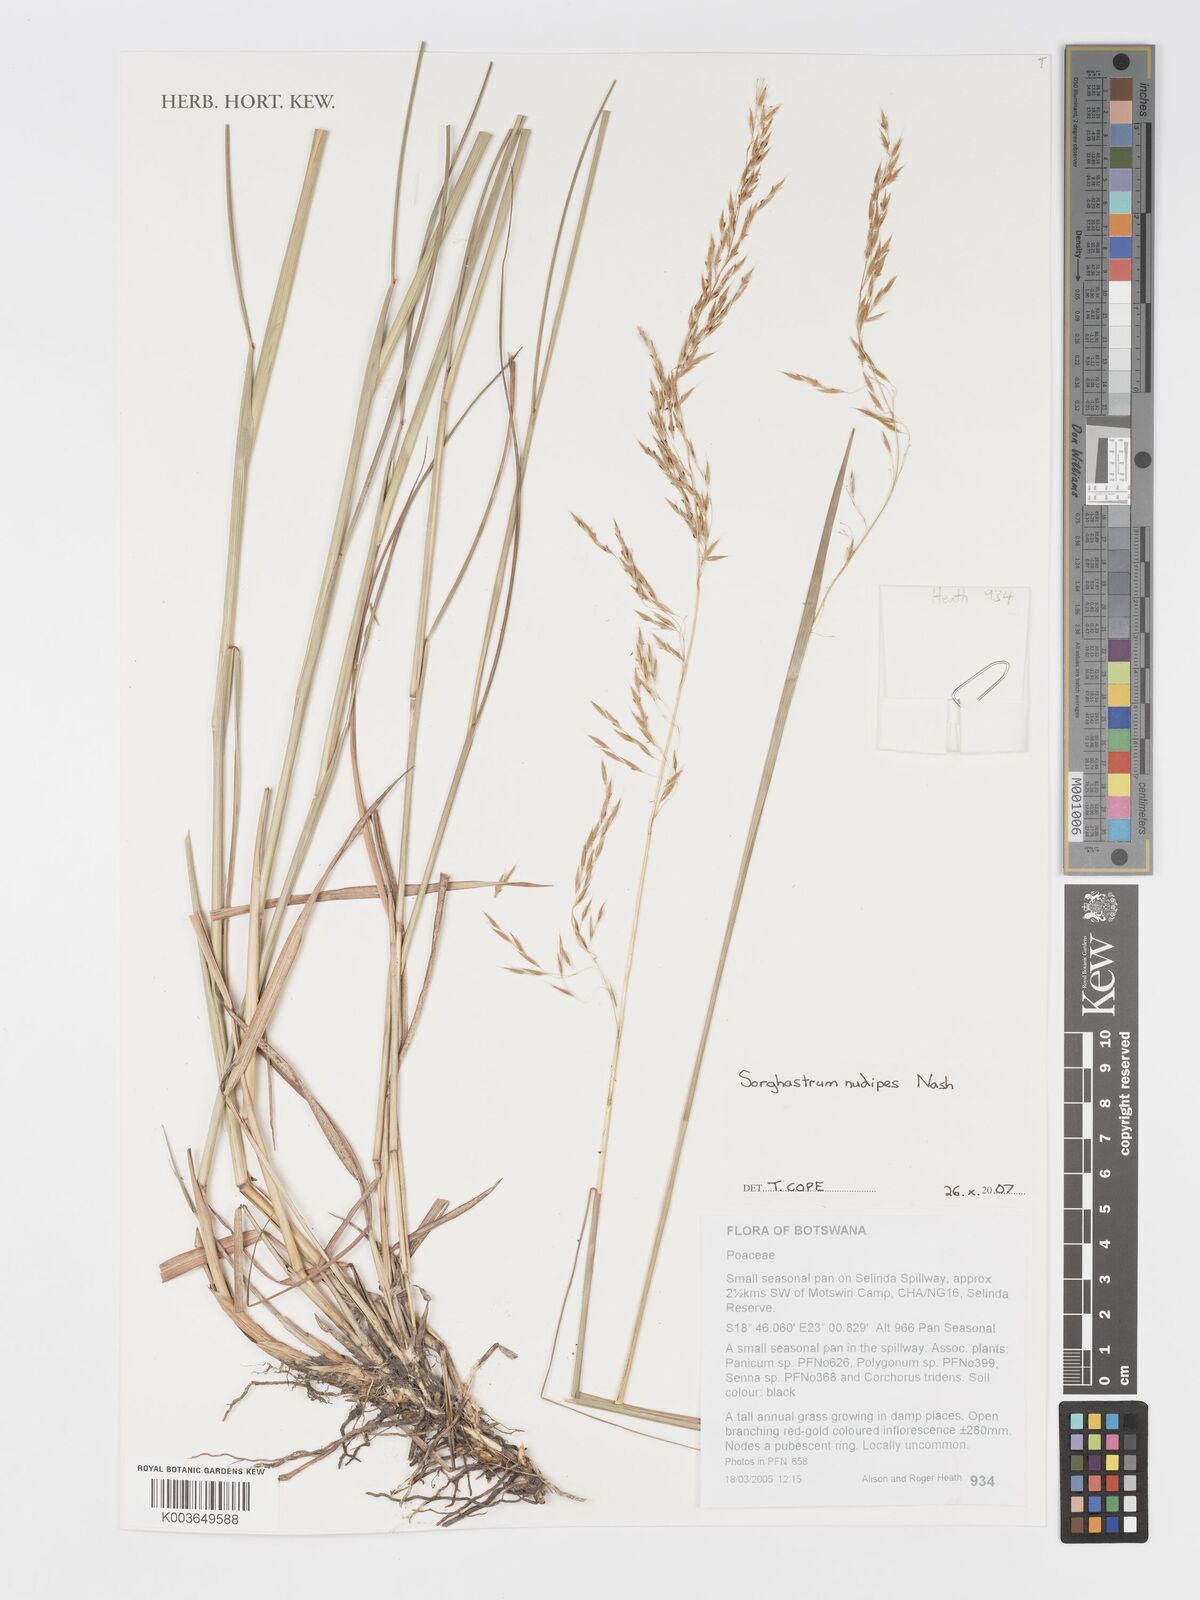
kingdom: Plantae
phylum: Tracheophyta
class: Liliopsida
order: Poales
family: Poaceae
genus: Sorghastrum
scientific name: Sorghastrum nudipes
